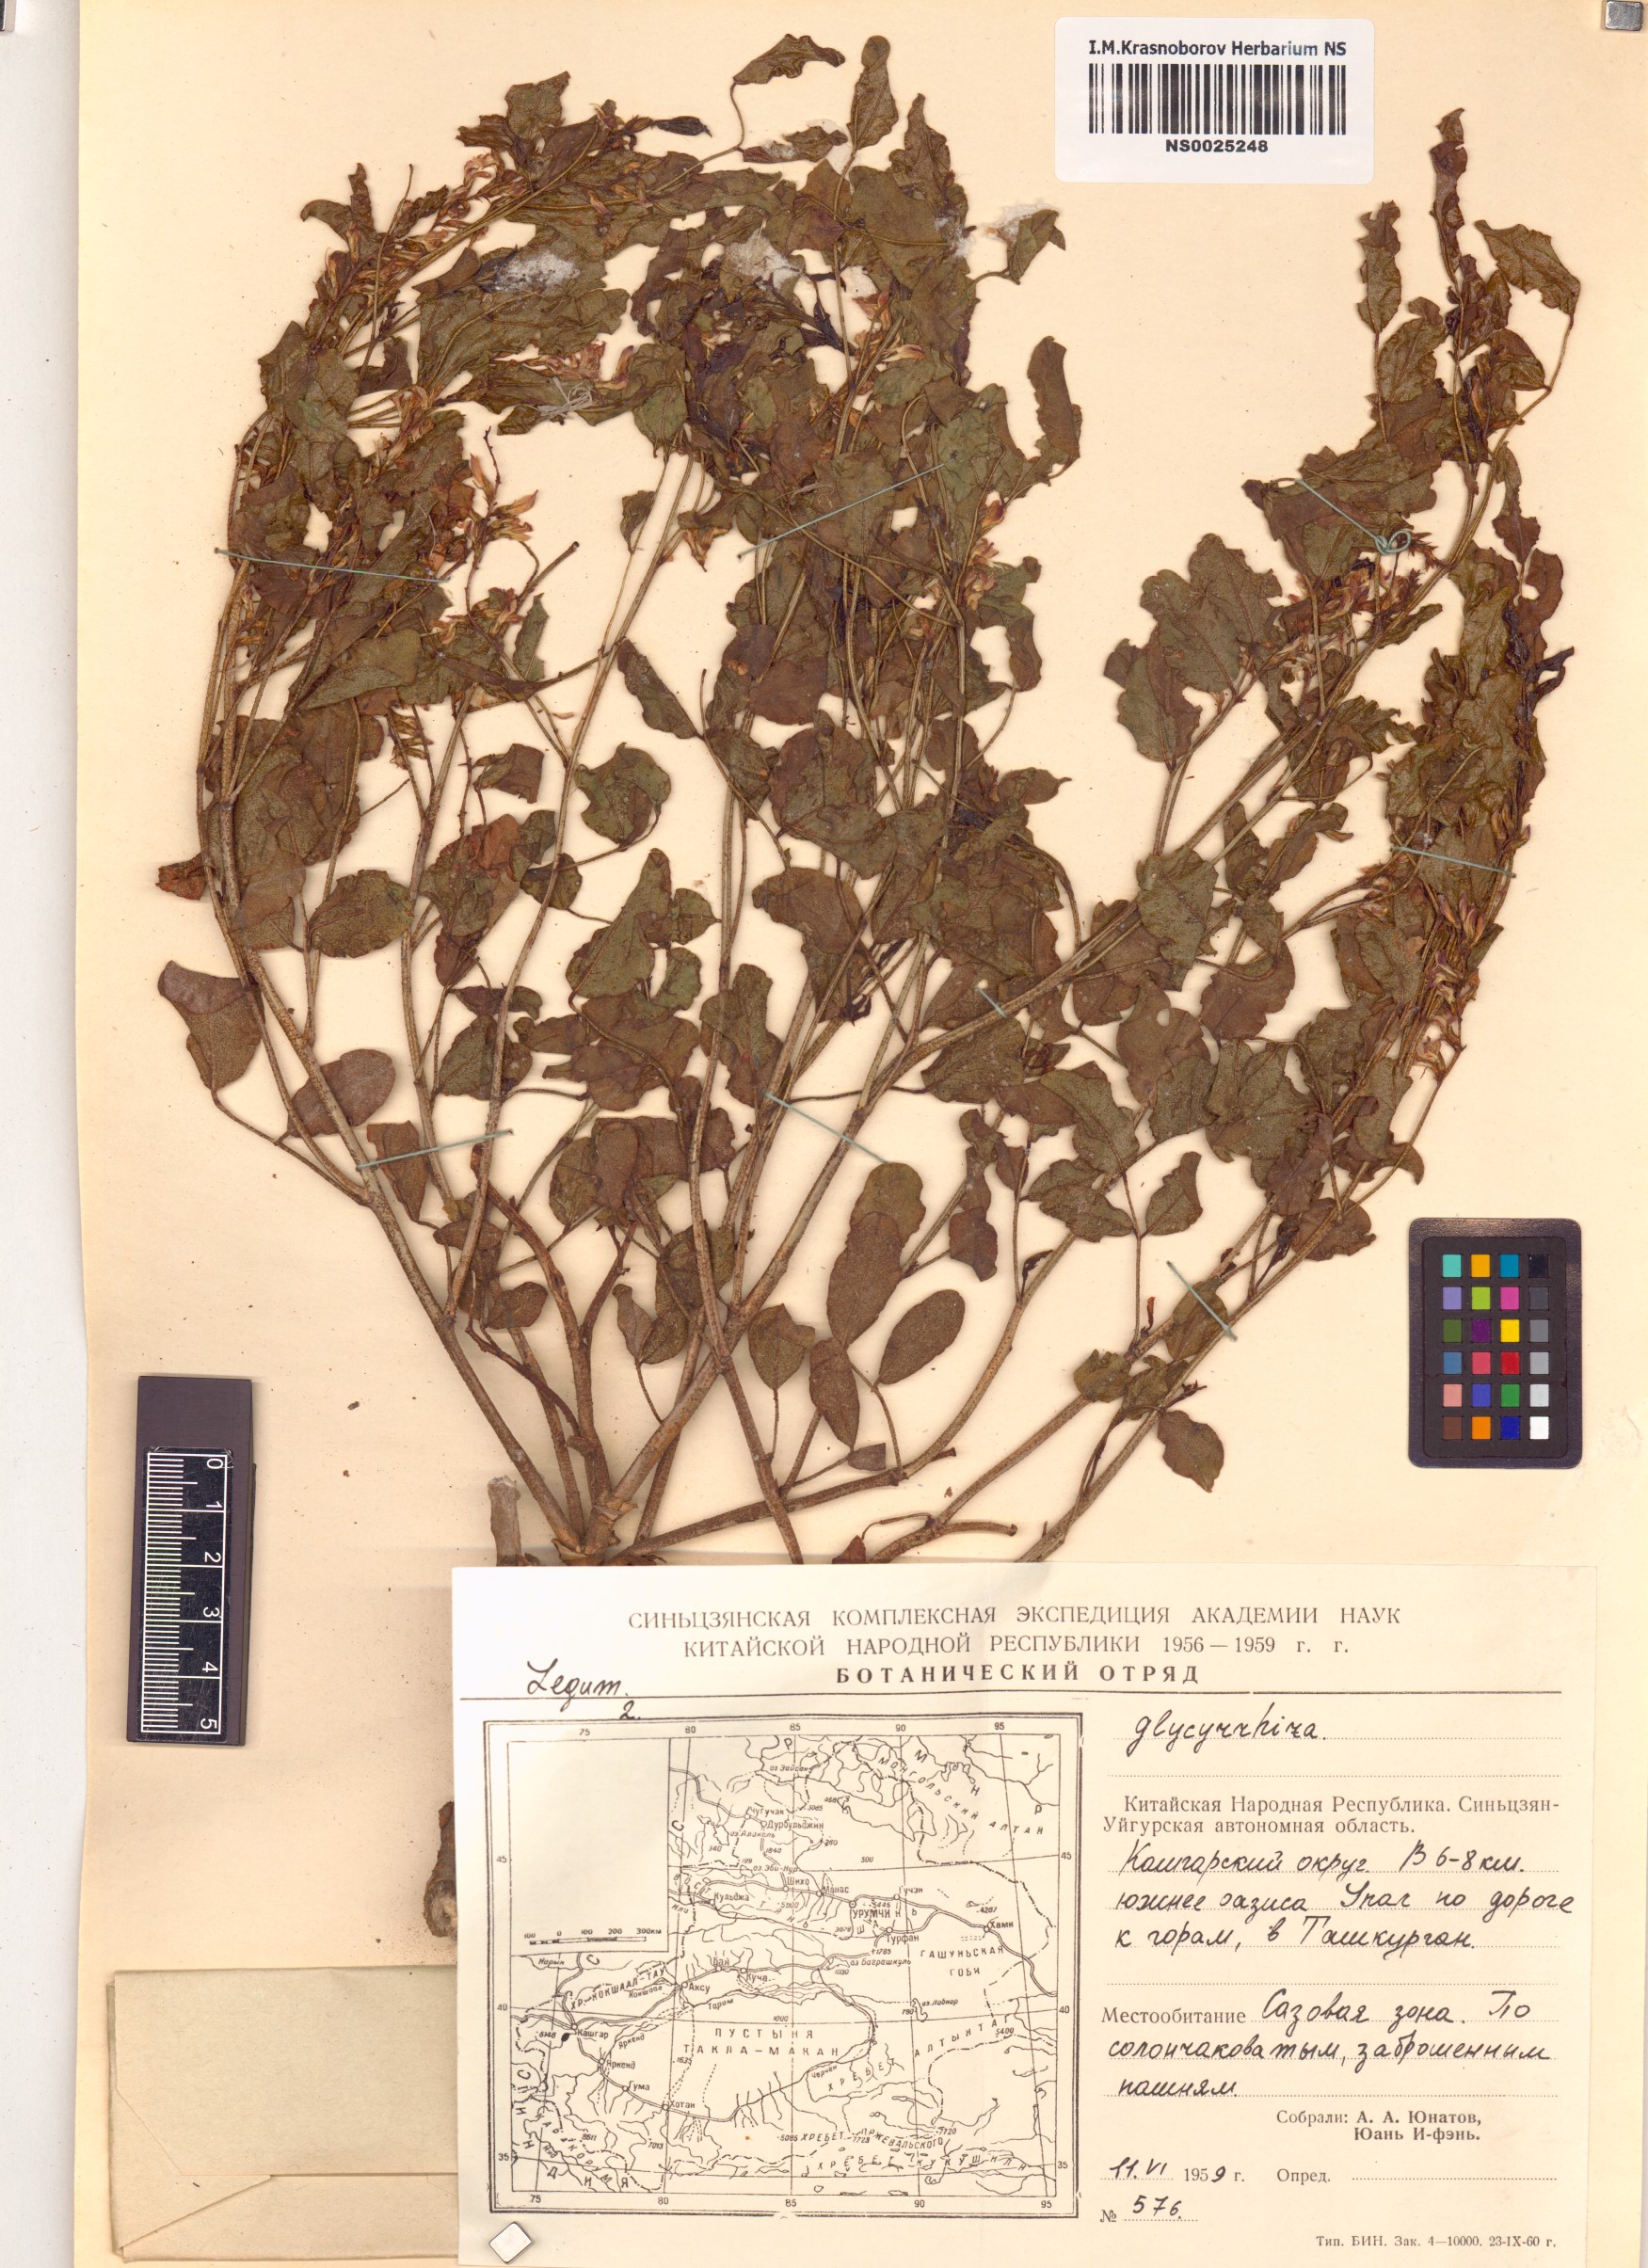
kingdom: Plantae
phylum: Tracheophyta
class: Magnoliopsida
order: Fabales
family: Fabaceae
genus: Glycyrrhiza
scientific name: Glycyrrhiza
